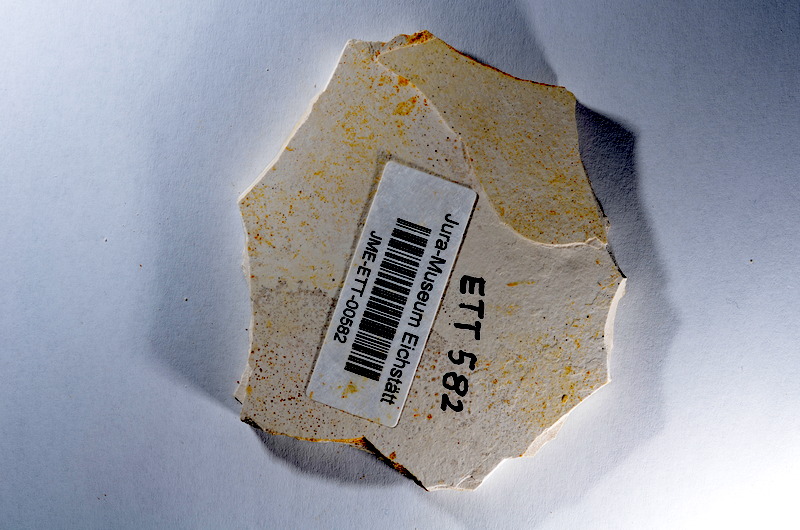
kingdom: Animalia
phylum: Chordata
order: Salmoniformes
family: Orthogonikleithridae
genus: Orthogonikleithrus
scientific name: Orthogonikleithrus hoelli
